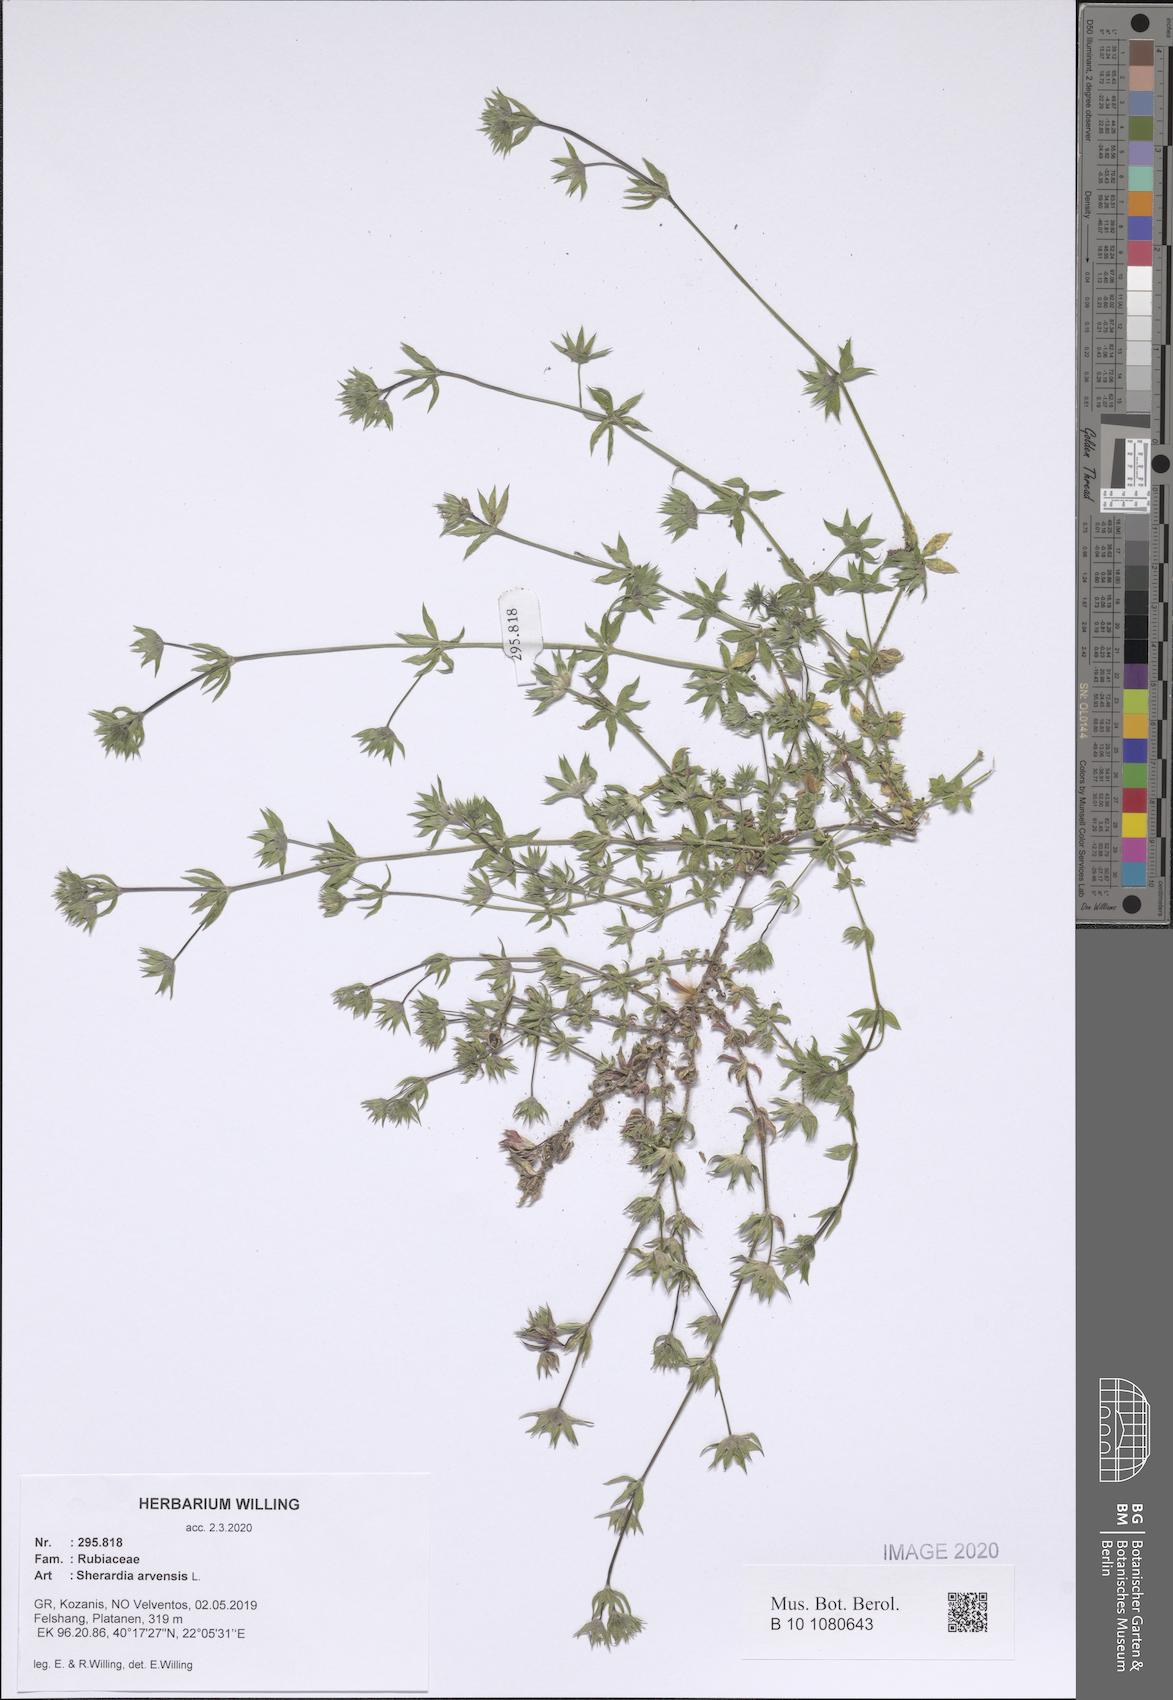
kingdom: Plantae
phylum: Tracheophyta
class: Magnoliopsida
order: Gentianales
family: Rubiaceae
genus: Sherardia
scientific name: Sherardia arvensis
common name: Field madder
